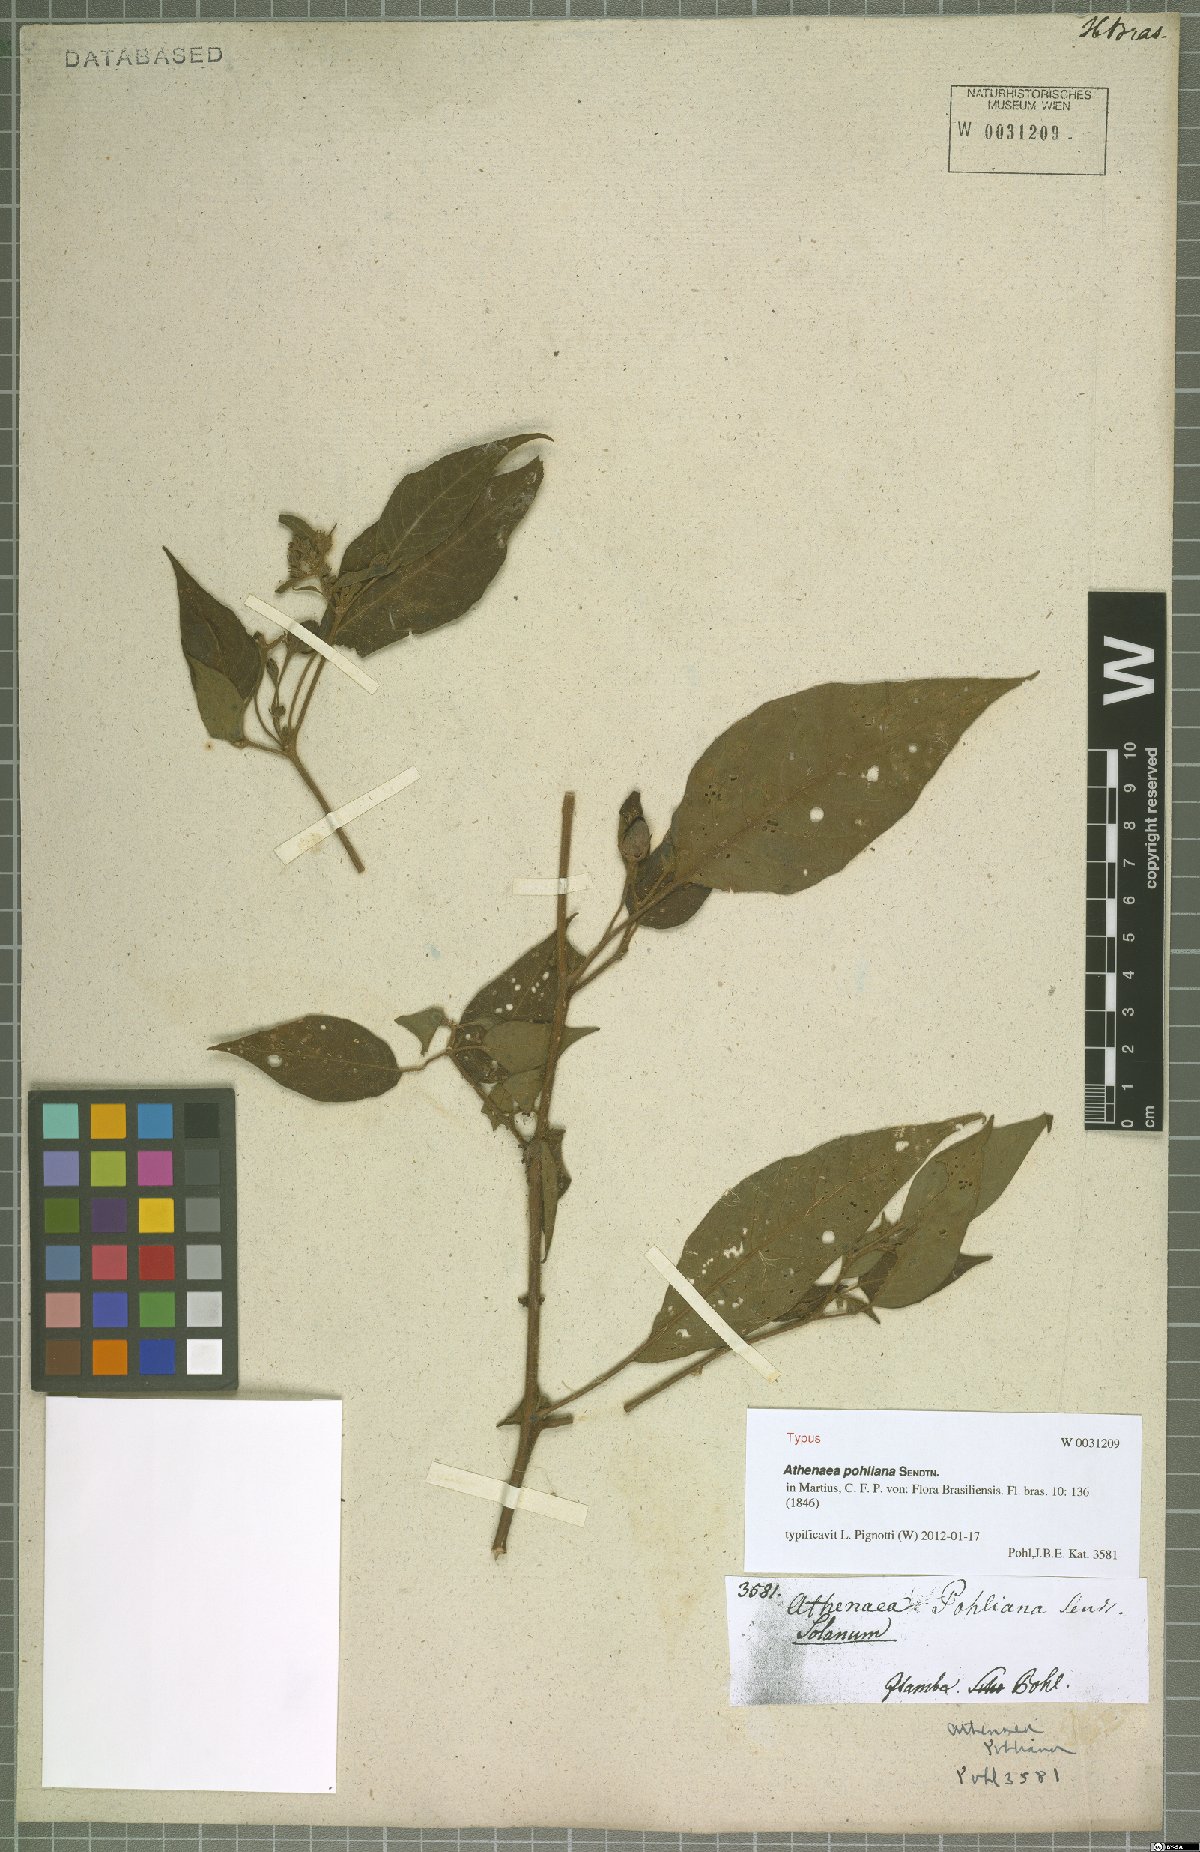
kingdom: Plantae
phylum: Tracheophyta
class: Magnoliopsida
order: Solanales
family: Solanaceae
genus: Athenaea
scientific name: Athenaea pogogena
